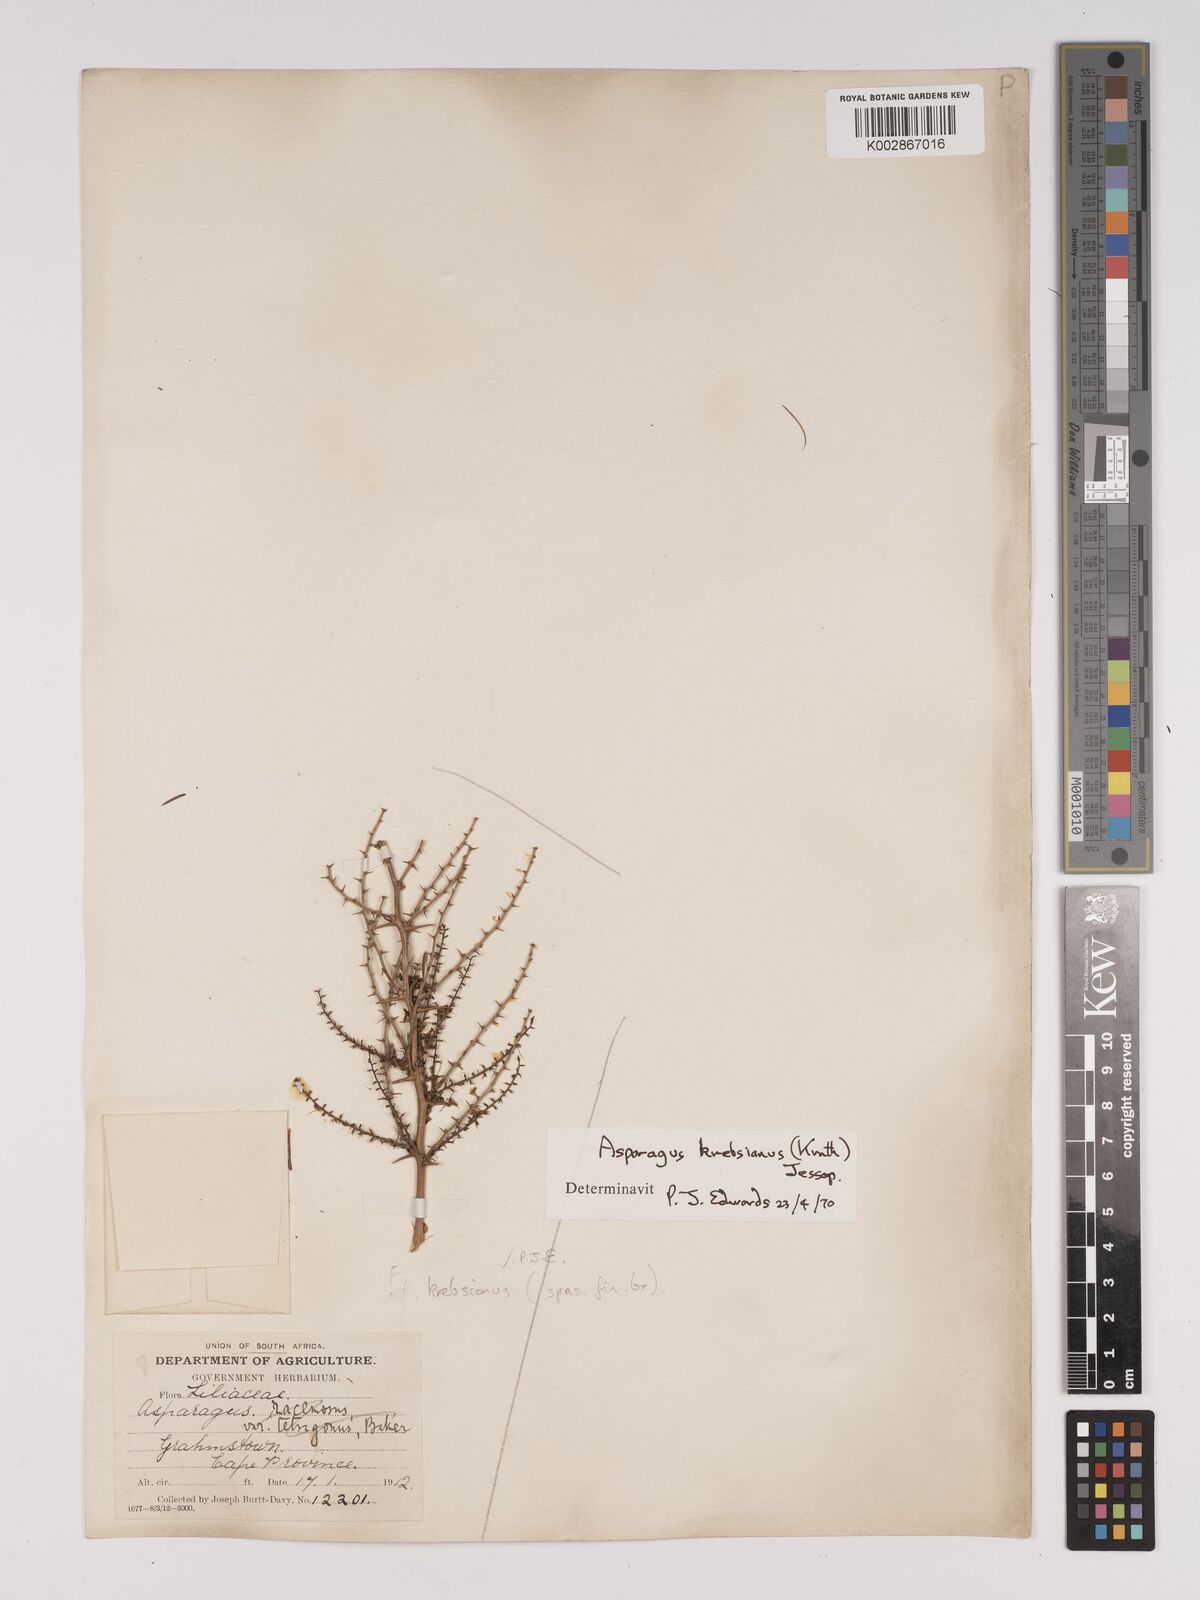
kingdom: Plantae
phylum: Tracheophyta
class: Liliopsida
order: Asparagales
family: Asparagaceae
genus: Asparagus
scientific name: Asparagus krebsianus
